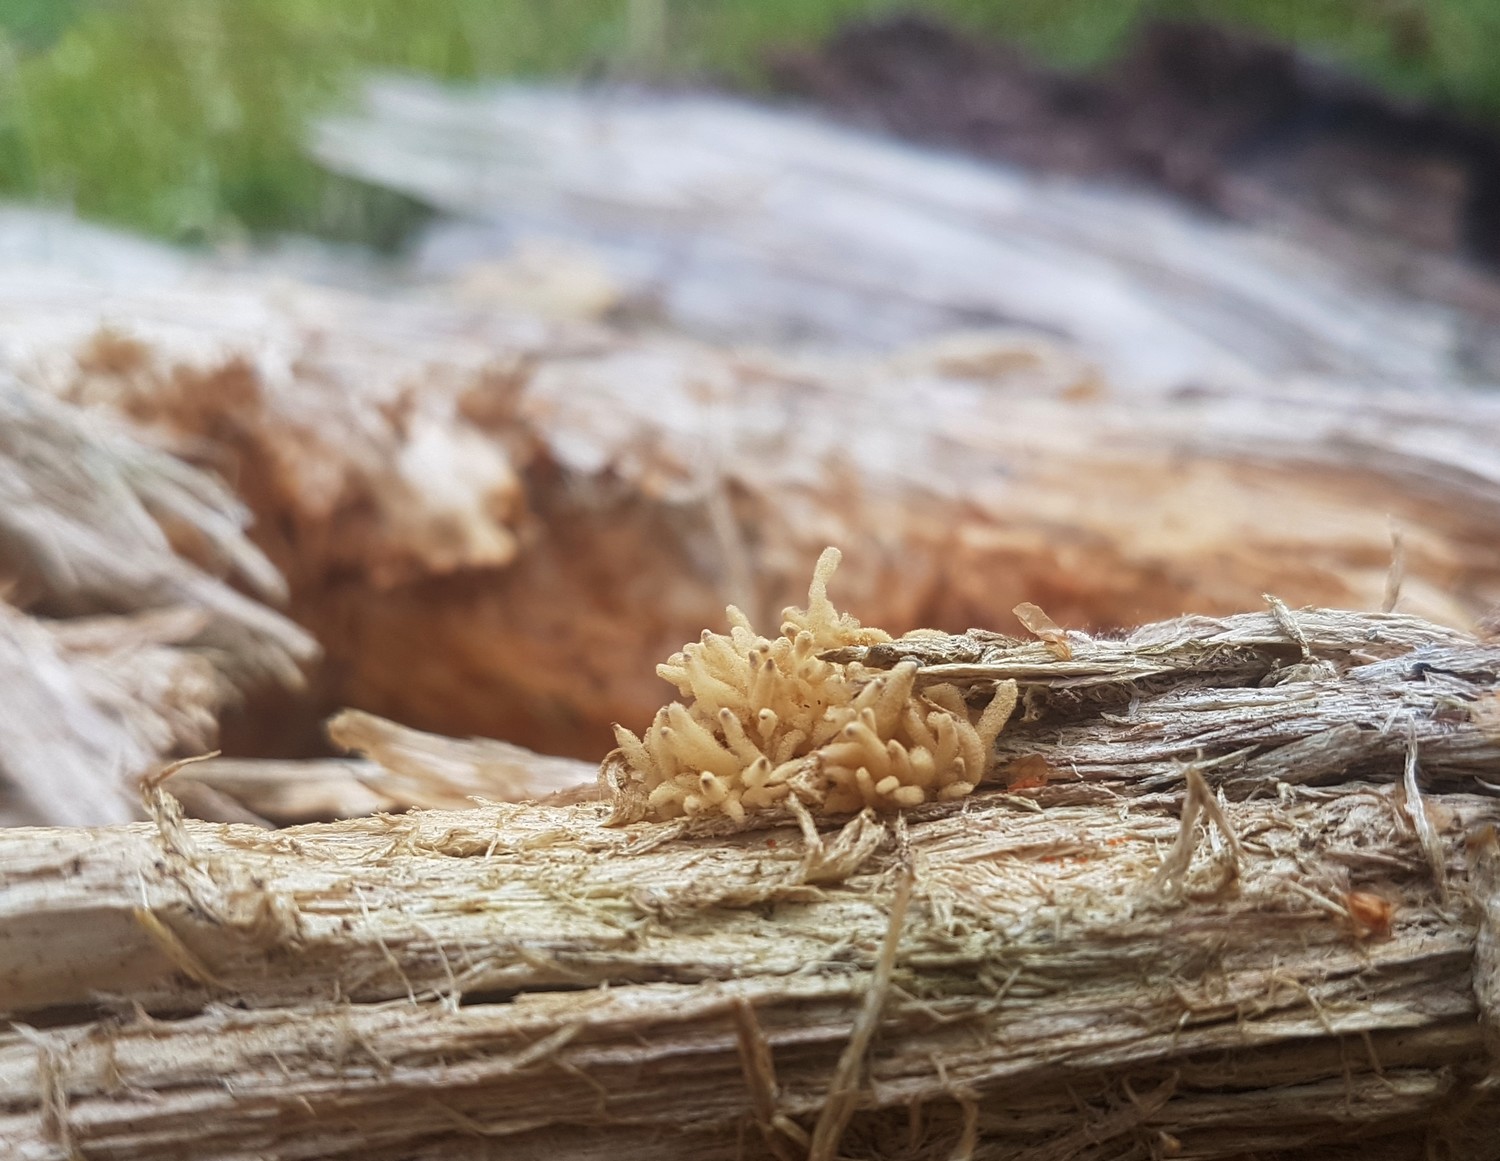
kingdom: Protozoa
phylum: Mycetozoa
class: Myxomycetes
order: Trichiales
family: Arcyriaceae
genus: Arcyria
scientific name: Arcyria obvelata
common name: okkergul skålsvøb
